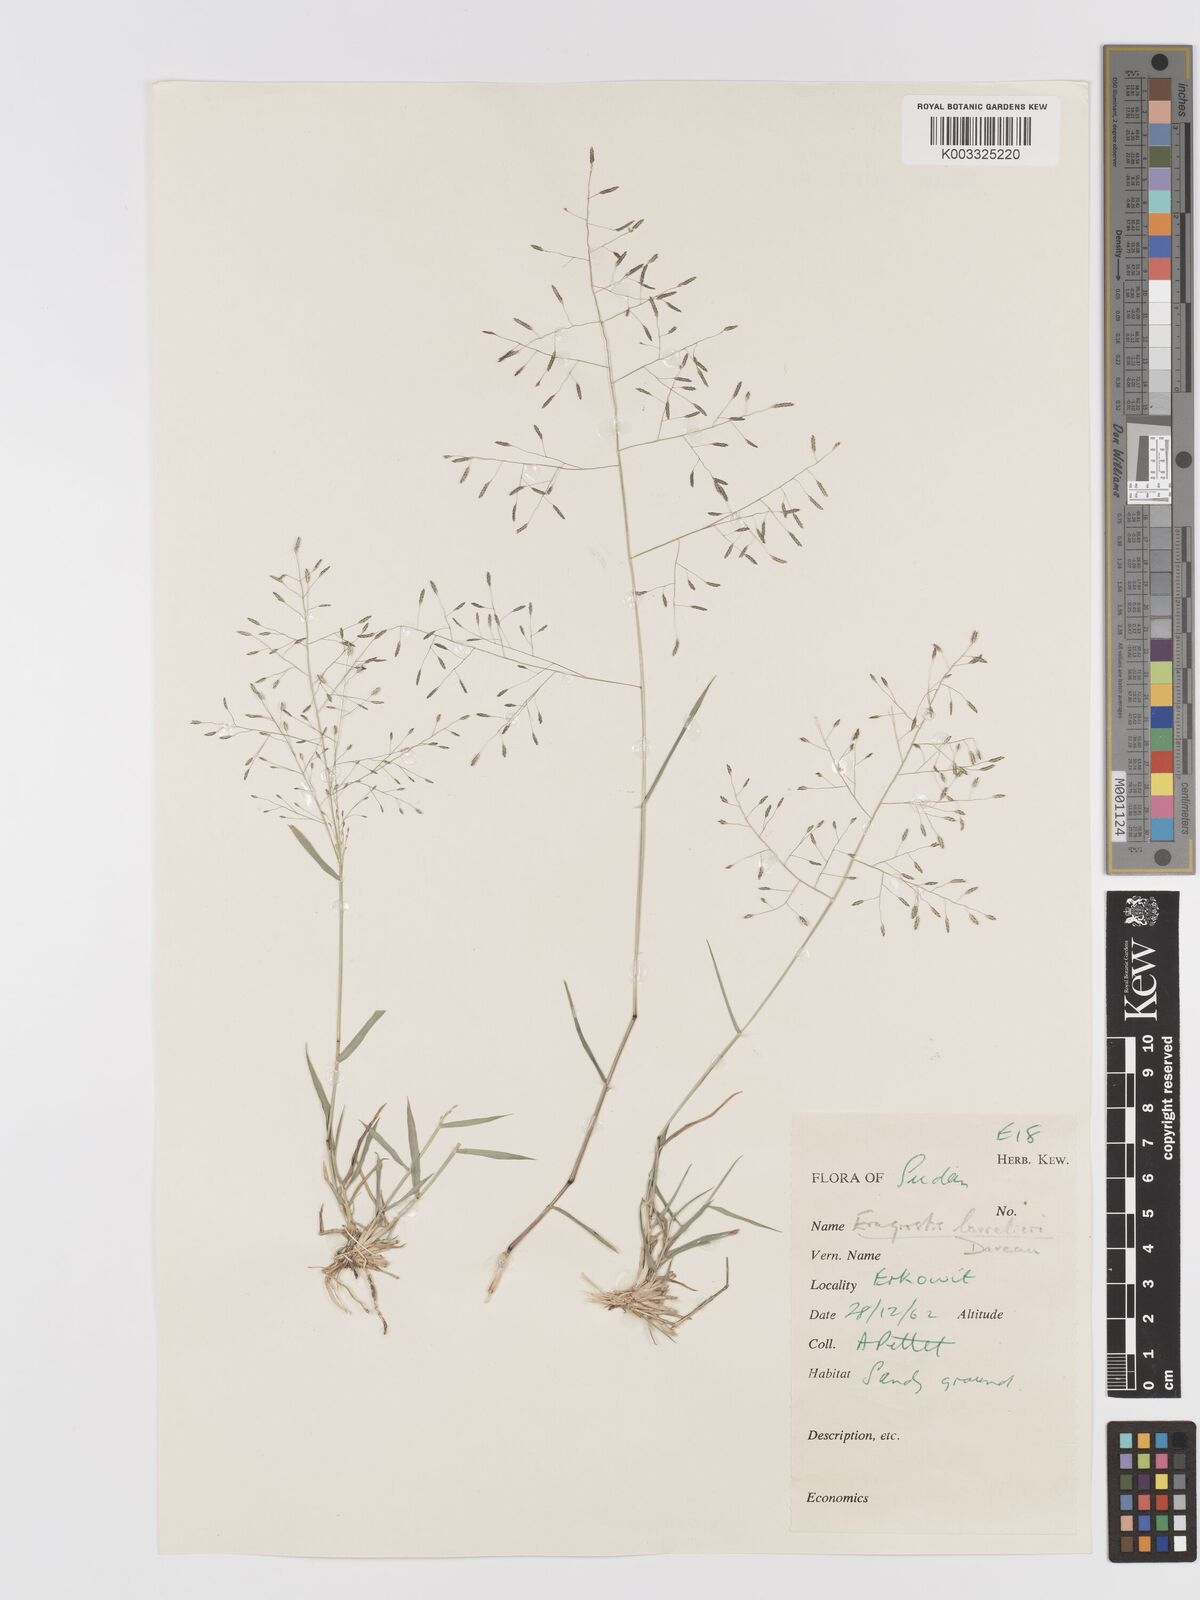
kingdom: Plantae
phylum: Tracheophyta
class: Liliopsida
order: Poales
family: Poaceae
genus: Eragrostis
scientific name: Eragrostis papposa
